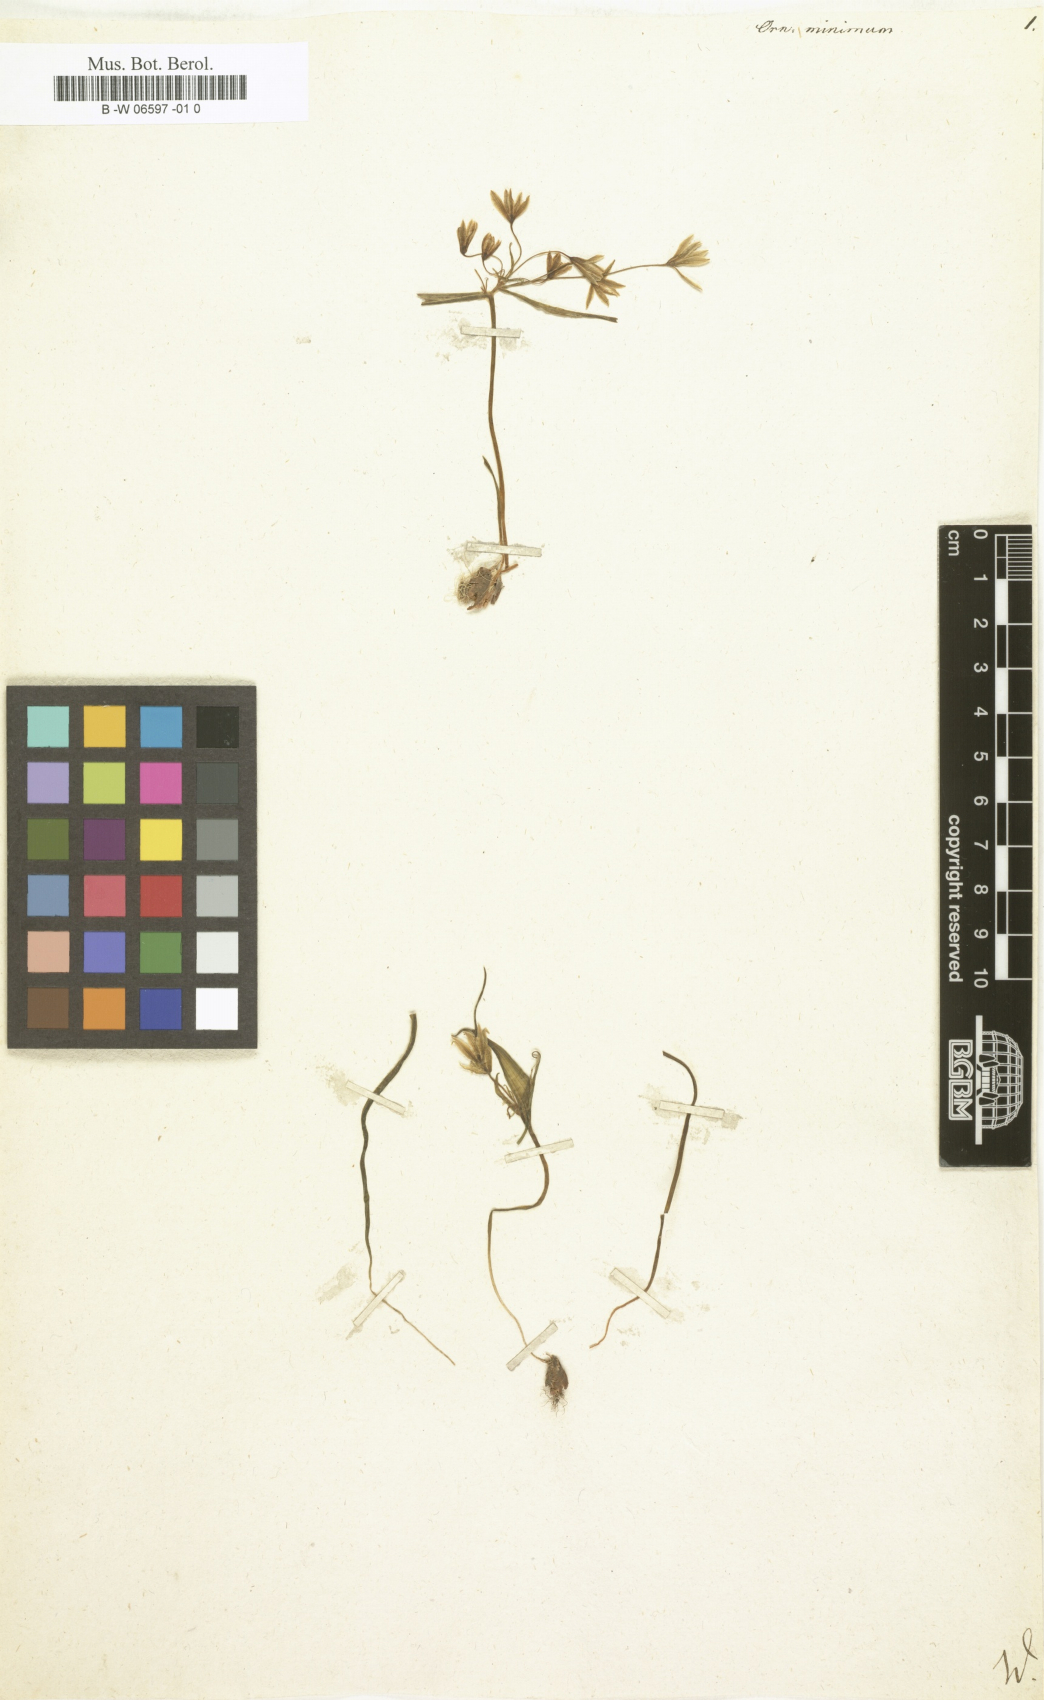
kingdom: Plantae
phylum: Tracheophyta
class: Liliopsida
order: Liliales
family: Liliaceae
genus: Gagea
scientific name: Gagea minima
